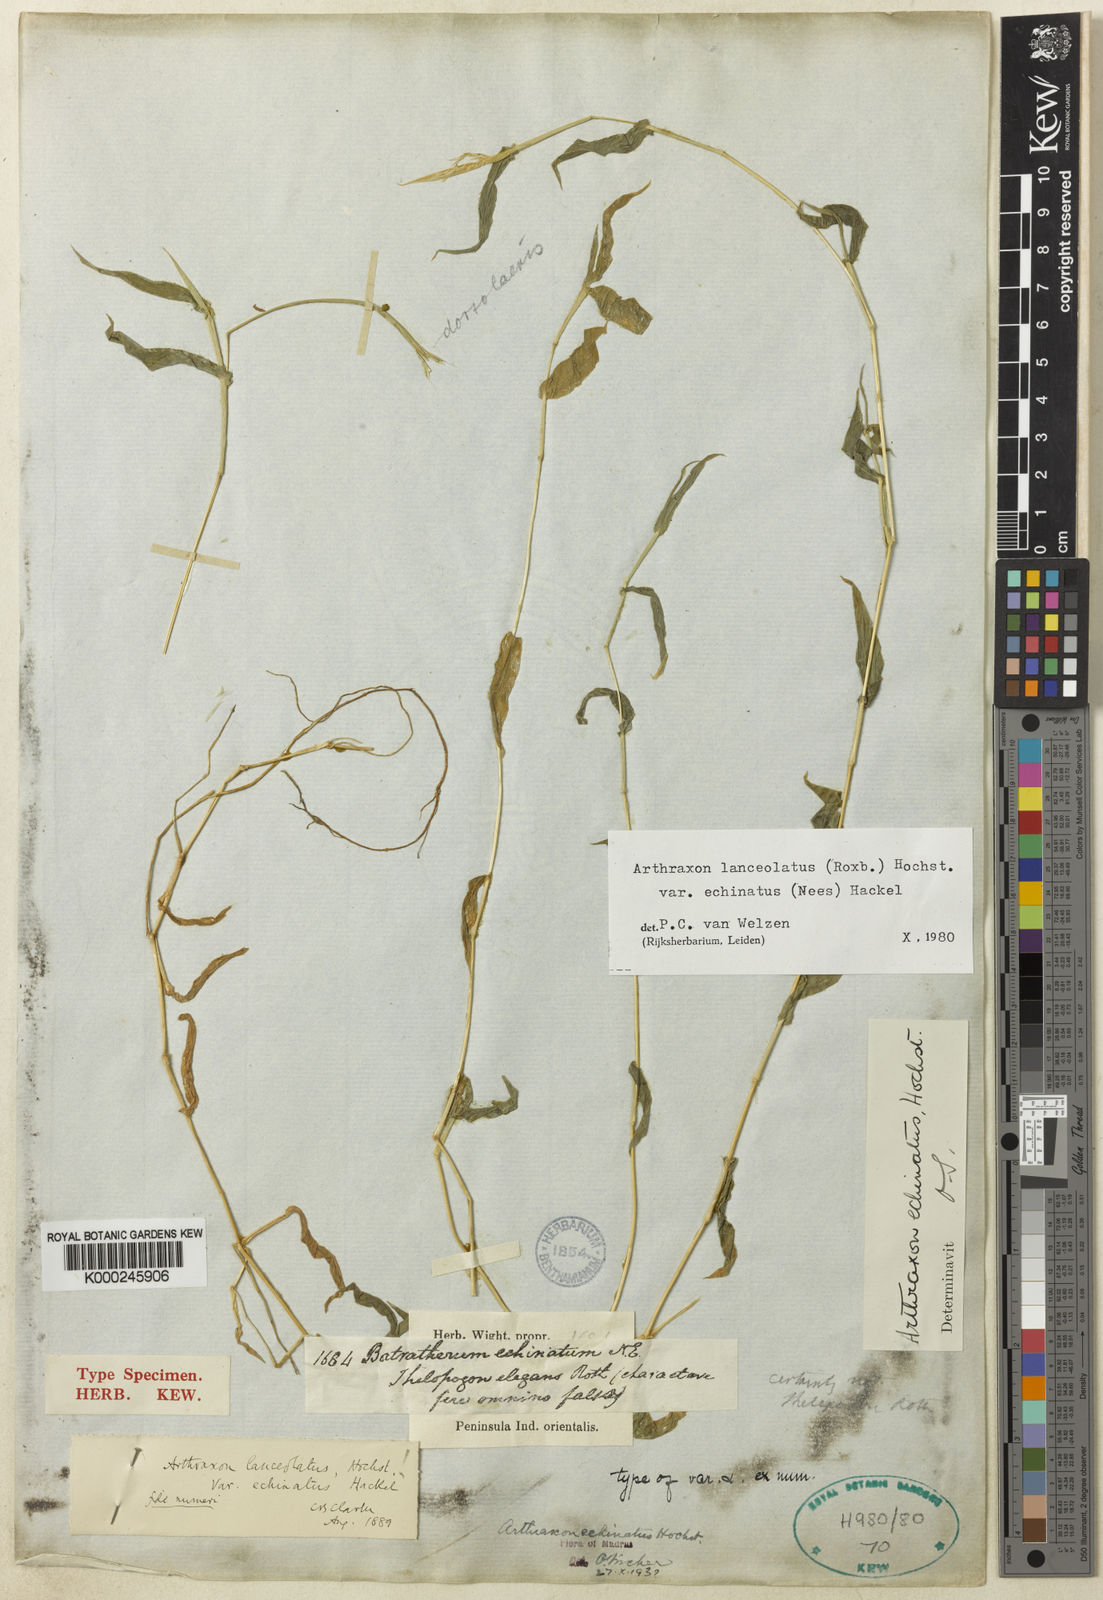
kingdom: Plantae
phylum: Tracheophyta
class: Liliopsida
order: Poales
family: Poaceae
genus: Arthraxon
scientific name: Arthraxon echinatus
